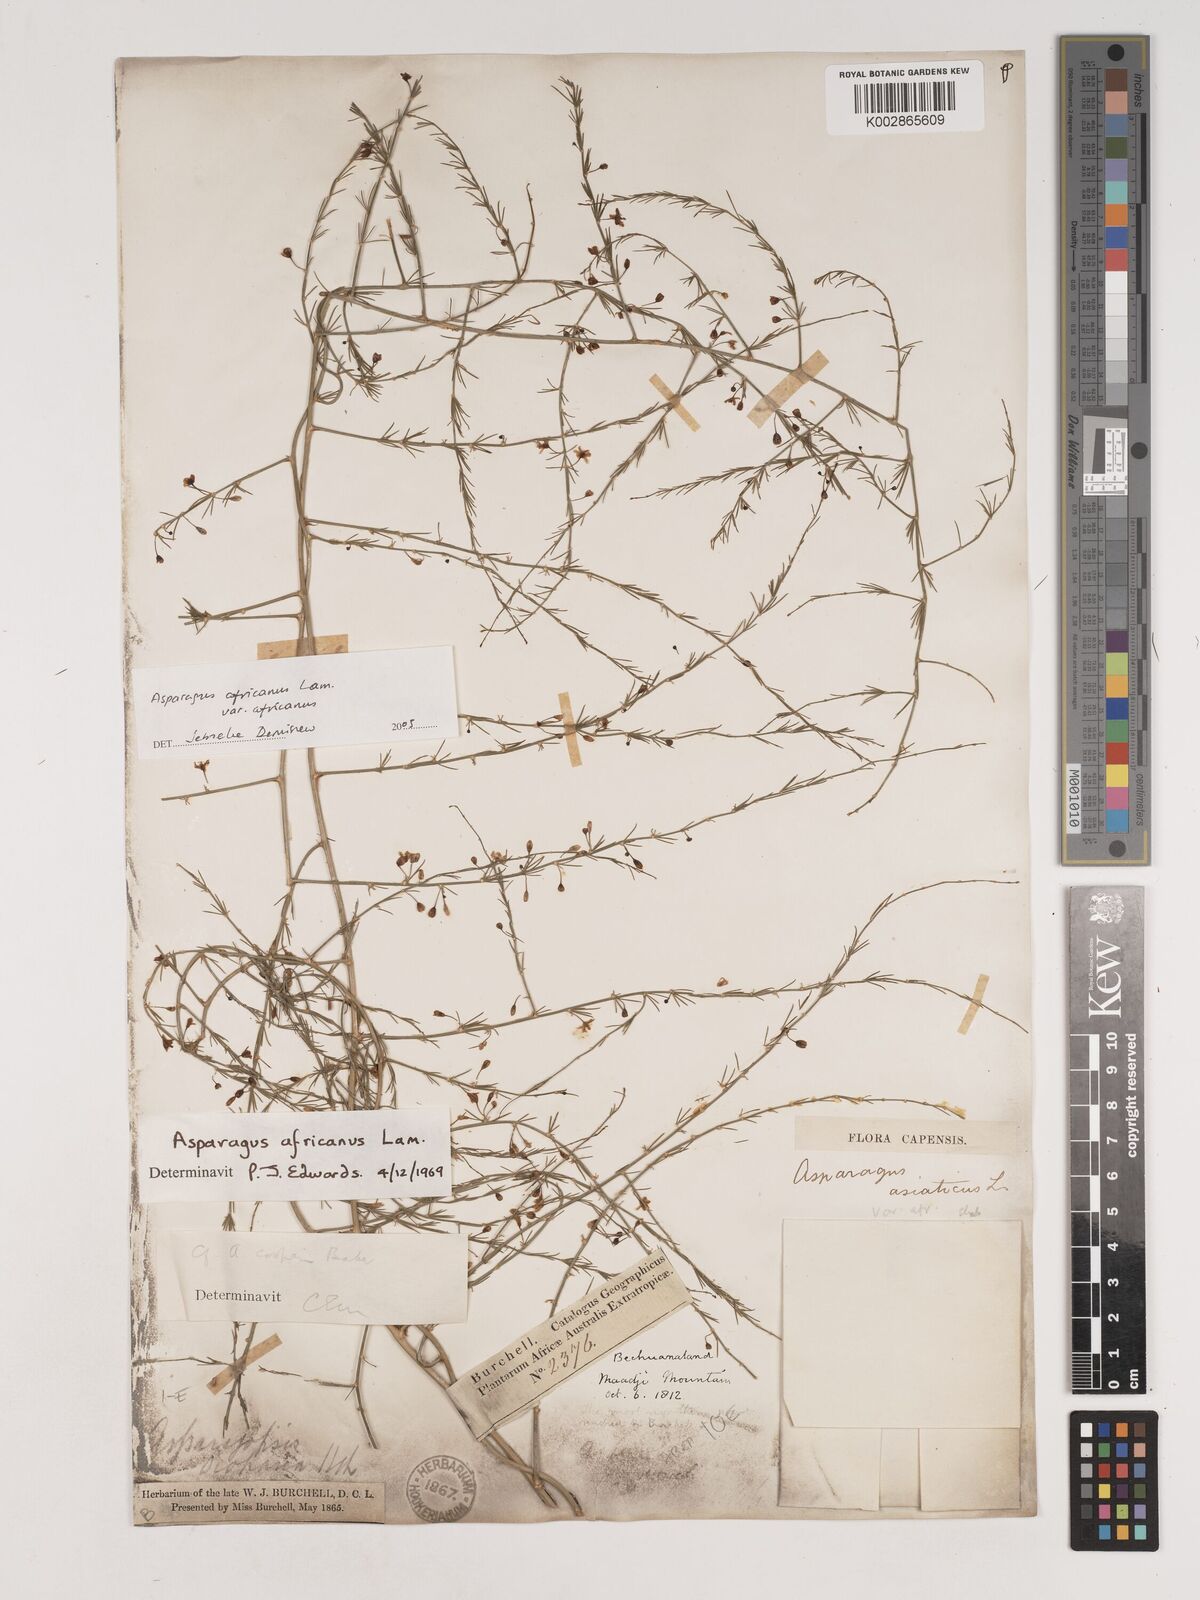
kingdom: Plantae
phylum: Tracheophyta
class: Liliopsida
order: Asparagales
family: Asparagaceae
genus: Asparagus
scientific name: Asparagus
